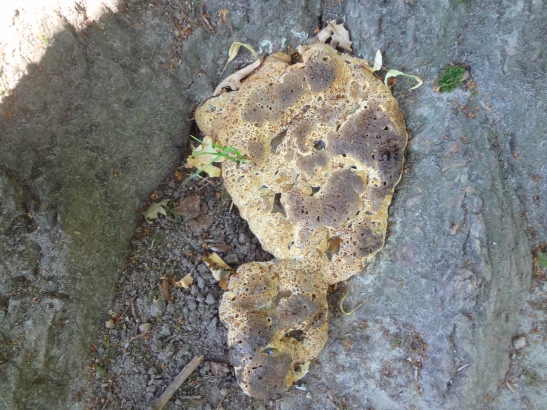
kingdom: Fungi
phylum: Basidiomycota
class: Agaricomycetes
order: Hymenochaetales
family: Hymenochaetaceae
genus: Pseudoinonotus
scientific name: Pseudoinonotus dryadeus
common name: ege-spejlporesvamp
